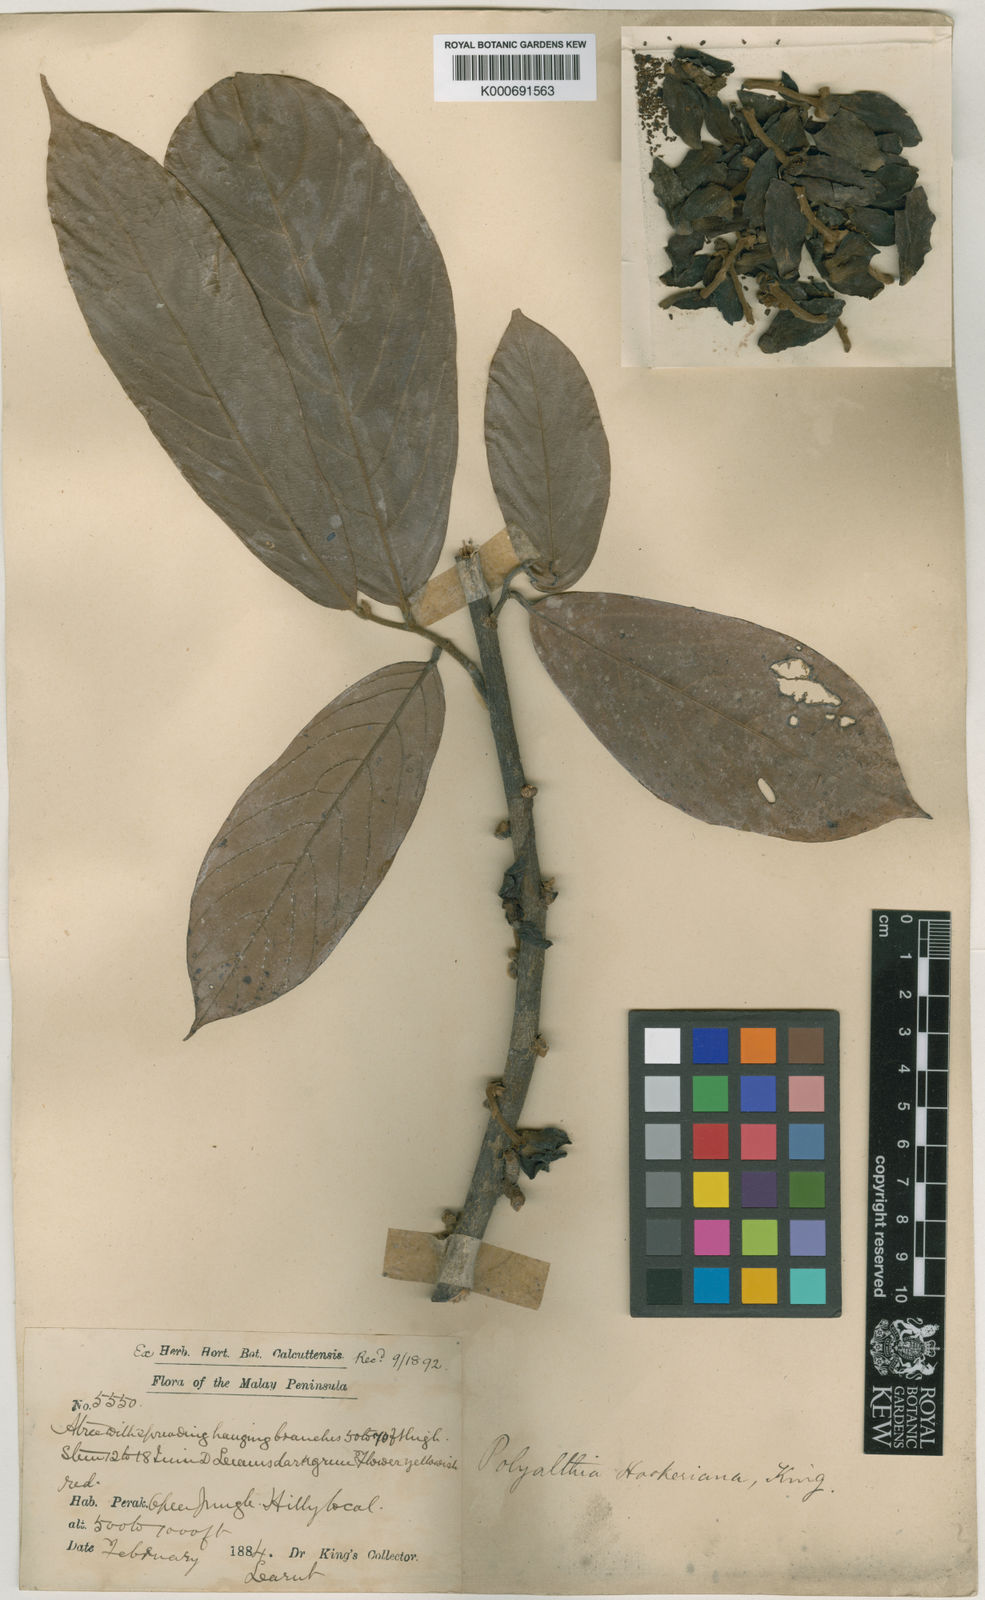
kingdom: Plantae
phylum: Tracheophyta
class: Magnoliopsida
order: Magnoliales
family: Annonaceae
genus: Polyalthia
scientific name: Polyalthia hookeriana
